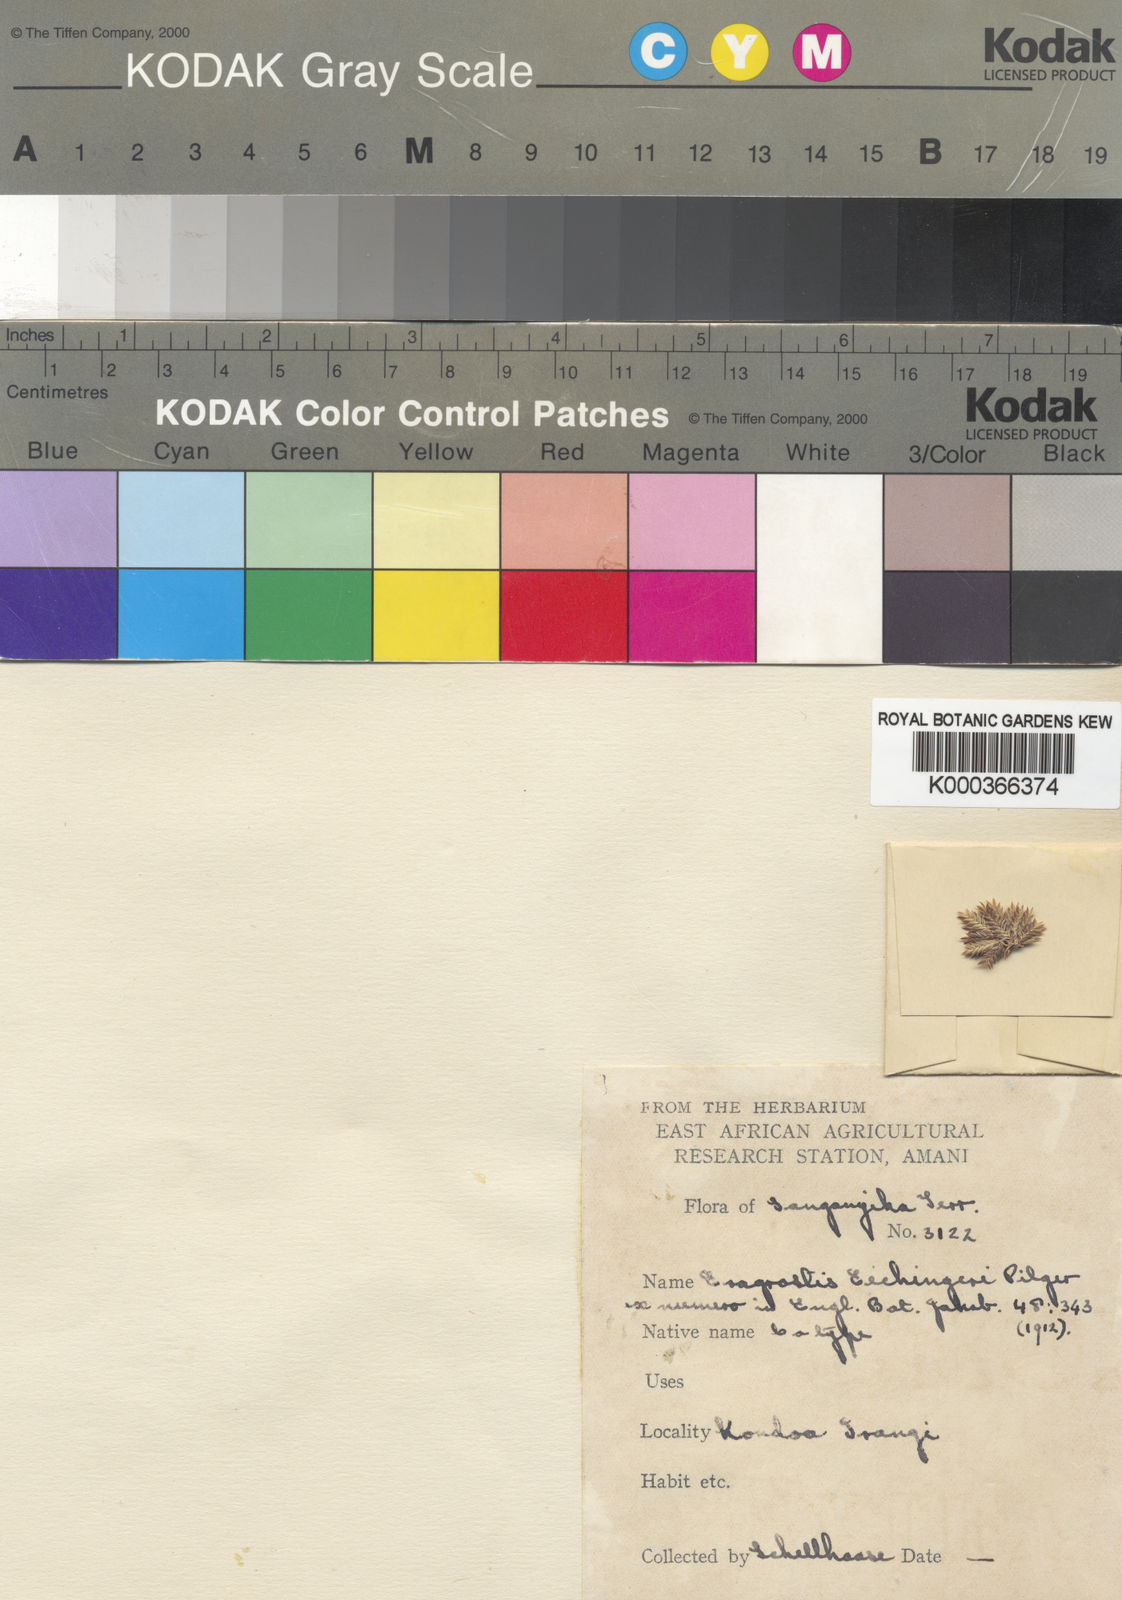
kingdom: Plantae
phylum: Tracheophyta
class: Liliopsida
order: Poales
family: Poaceae
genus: Eragrostis
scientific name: Eragrostis congesta
